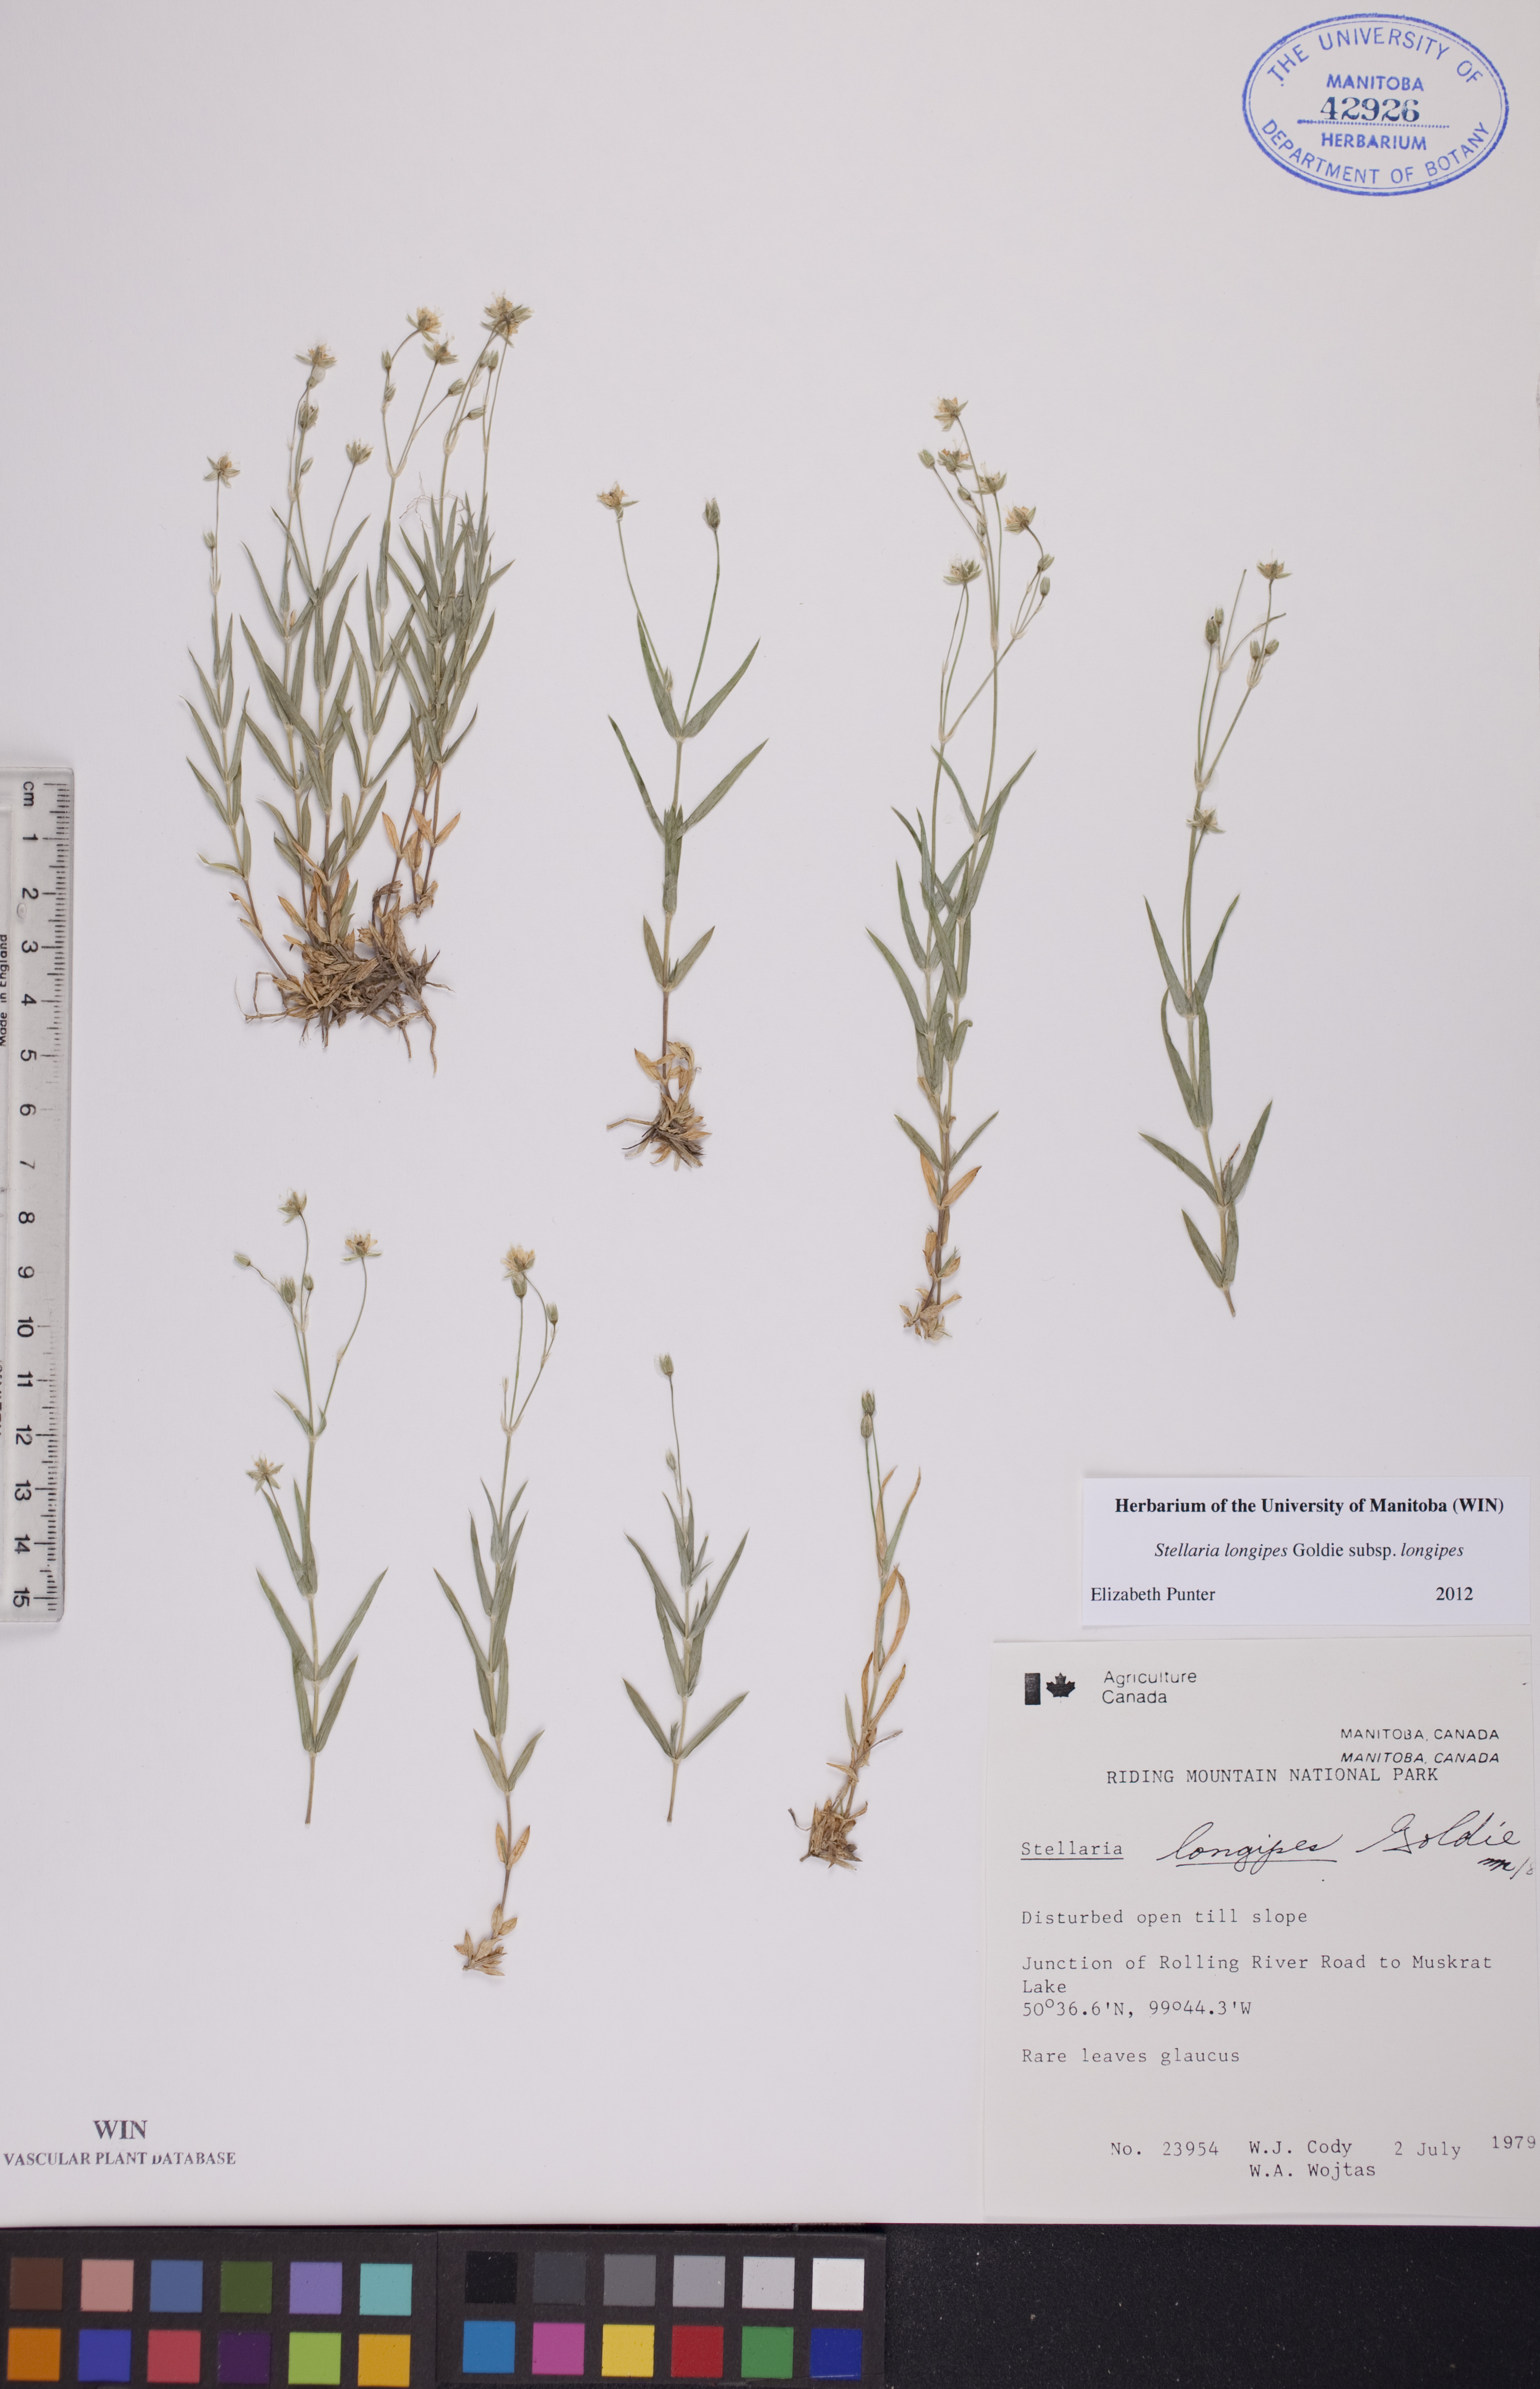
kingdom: Plantae
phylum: Tracheophyta
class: Magnoliopsida
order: Caryophyllales
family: Caryophyllaceae
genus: Stellaria
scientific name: Stellaria longipes
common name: Goldie's starwort
